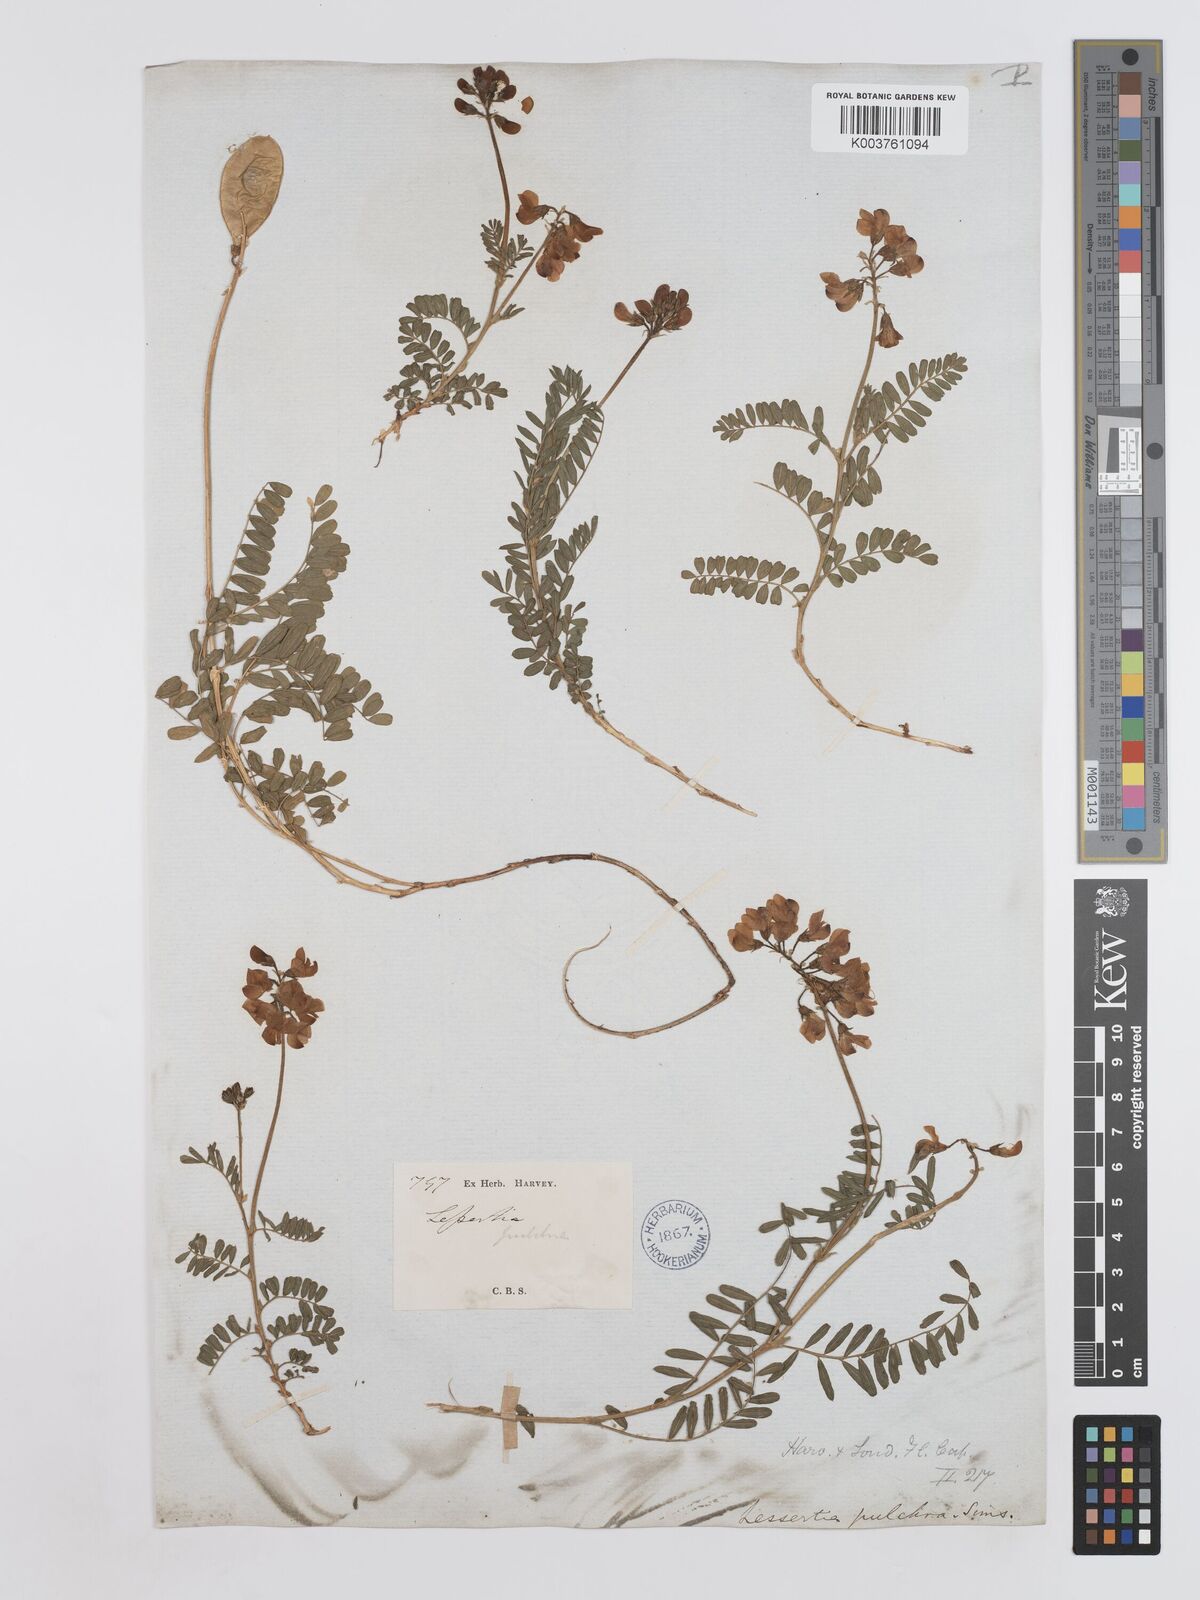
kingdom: Plantae
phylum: Tracheophyta
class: Magnoliopsida
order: Fabales
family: Fabaceae
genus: Lessertia
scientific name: Lessertia capensis
